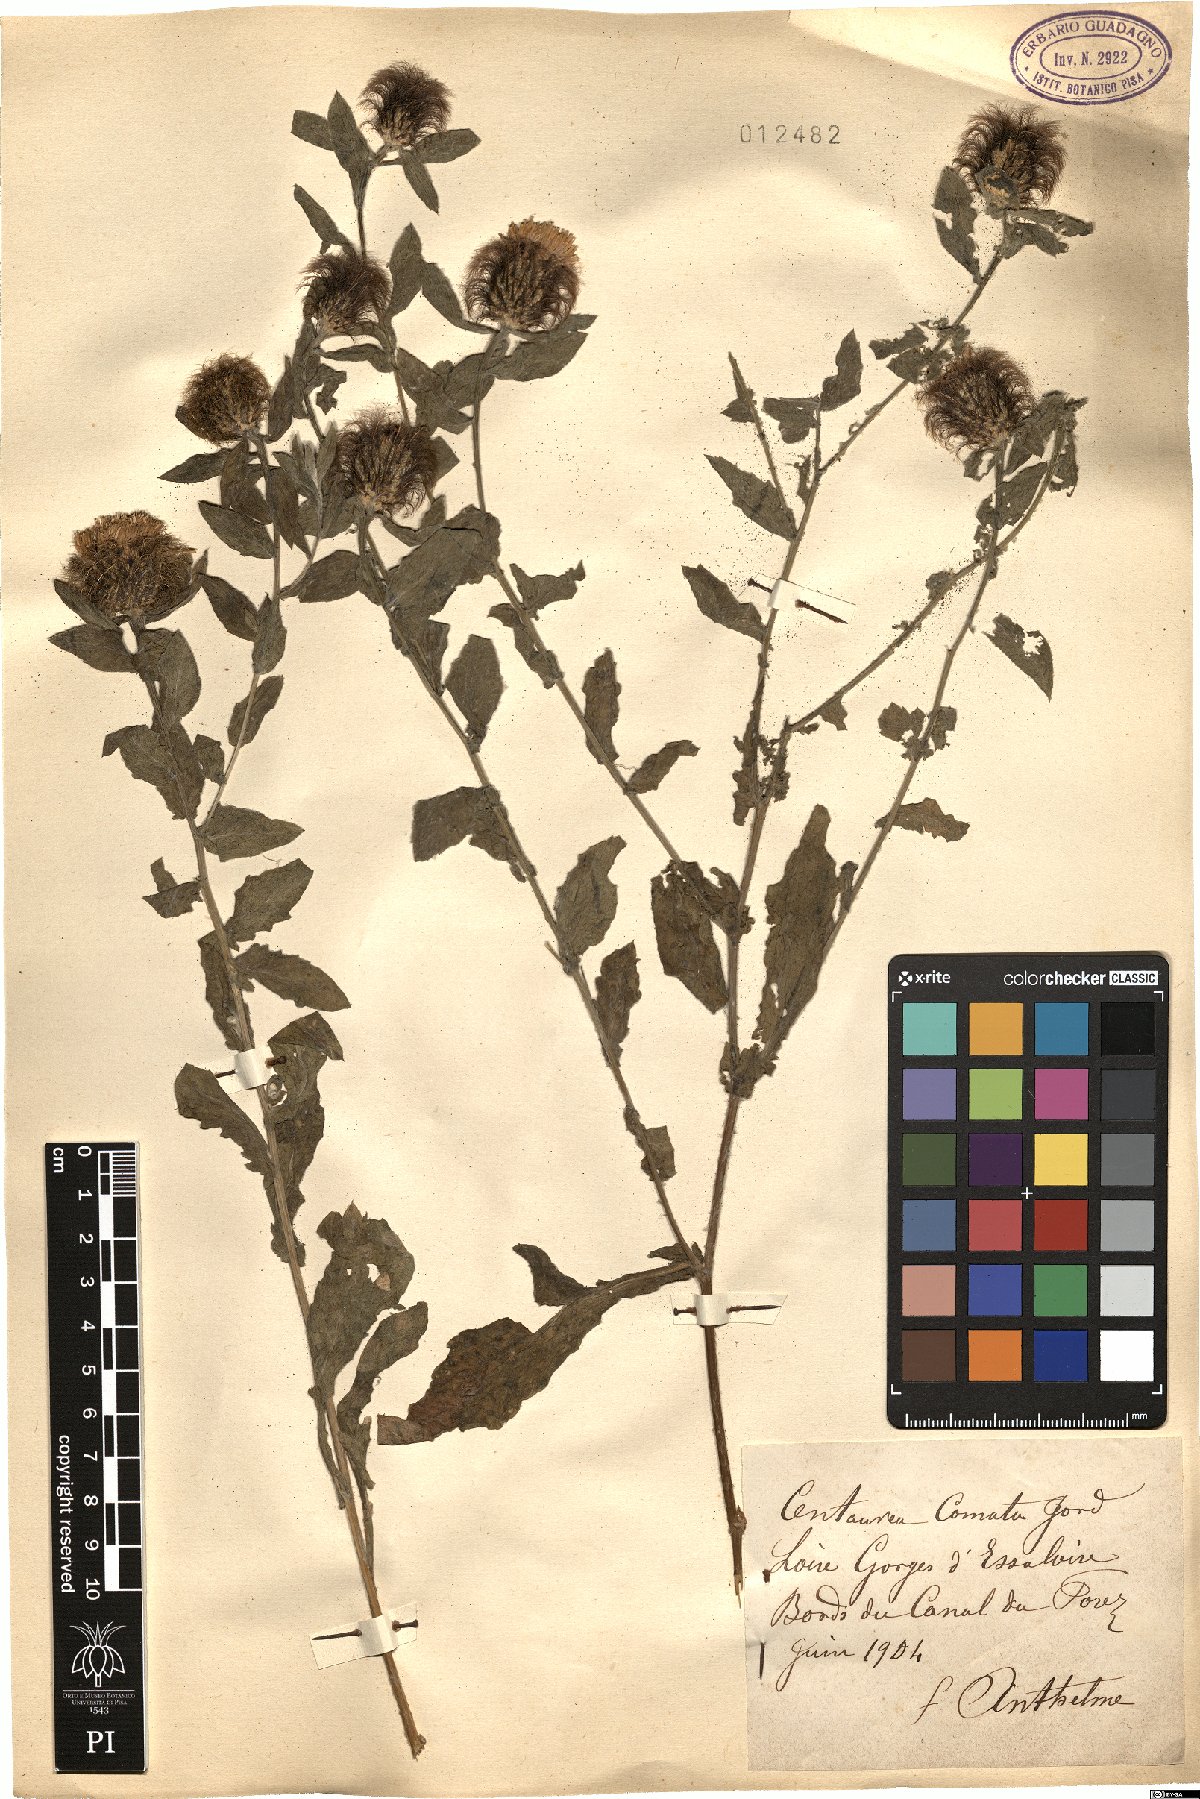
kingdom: Plantae
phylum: Tracheophyta
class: Magnoliopsida
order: Asterales
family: Asteraceae
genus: Centaurea
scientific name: Centaurea pectinata
